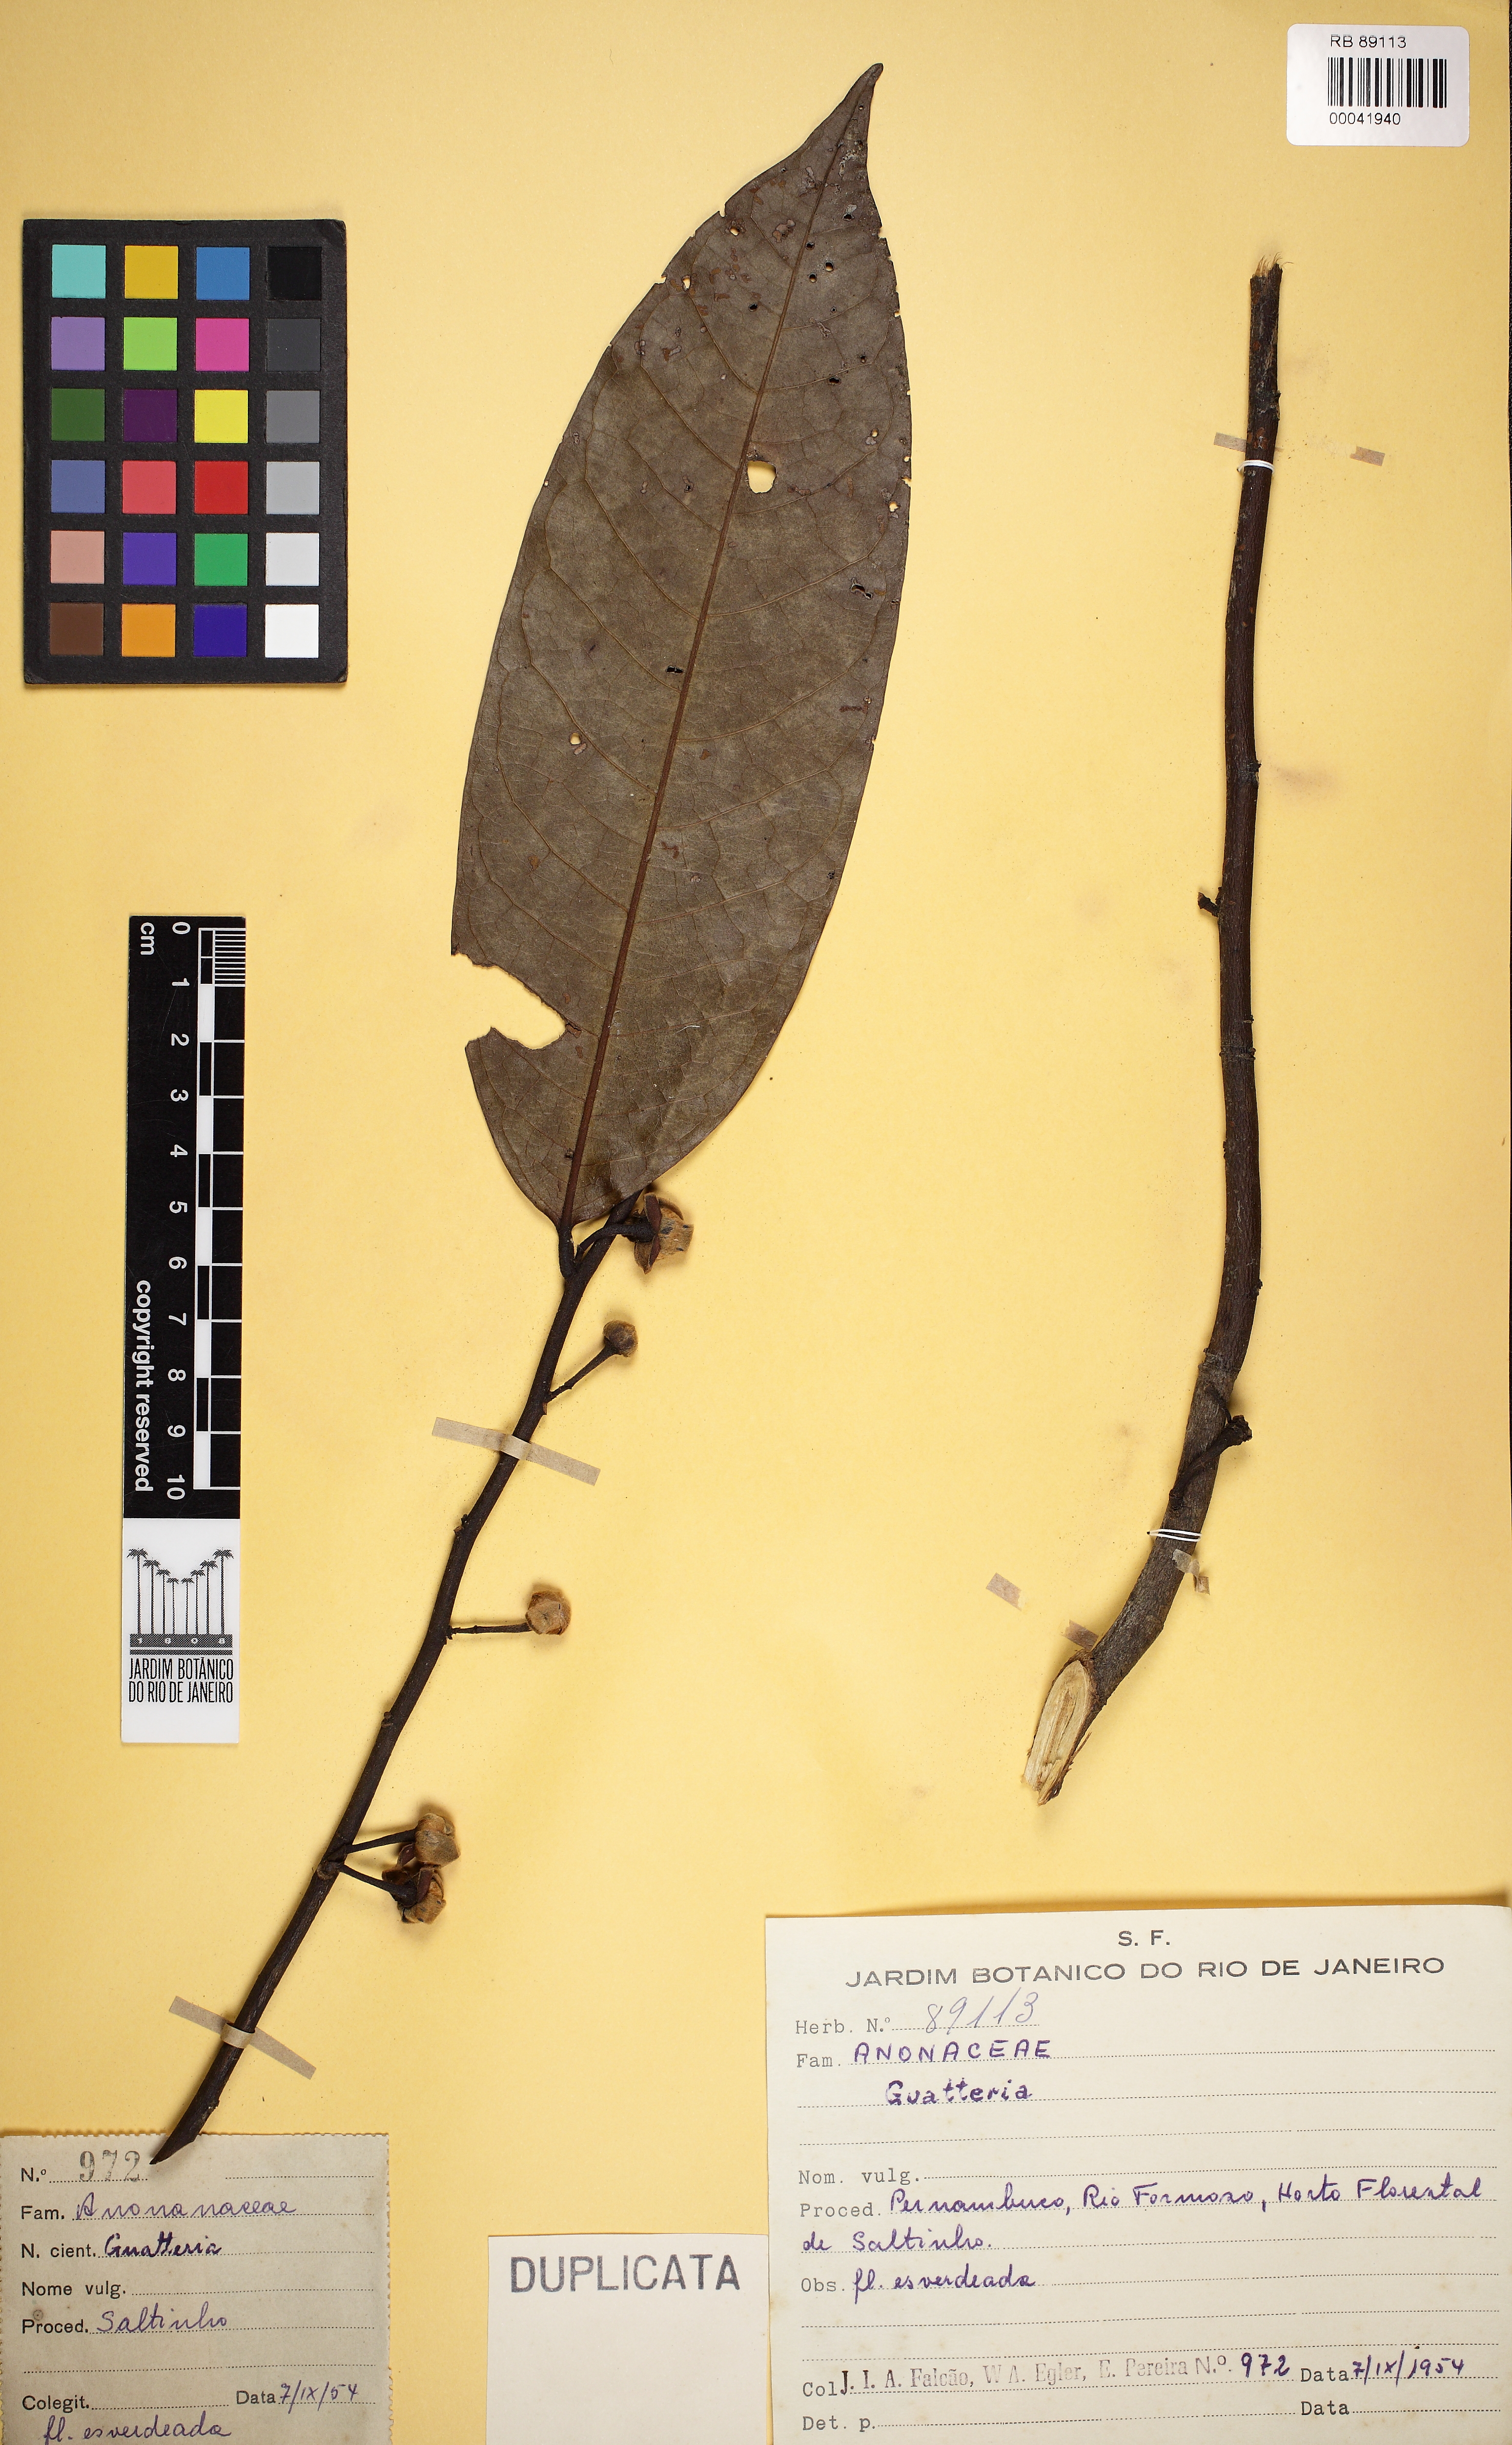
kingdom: Plantae
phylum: Tracheophyta
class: Magnoliopsida
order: Magnoliales
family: Annonaceae
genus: Guatteria
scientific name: Guatteria
